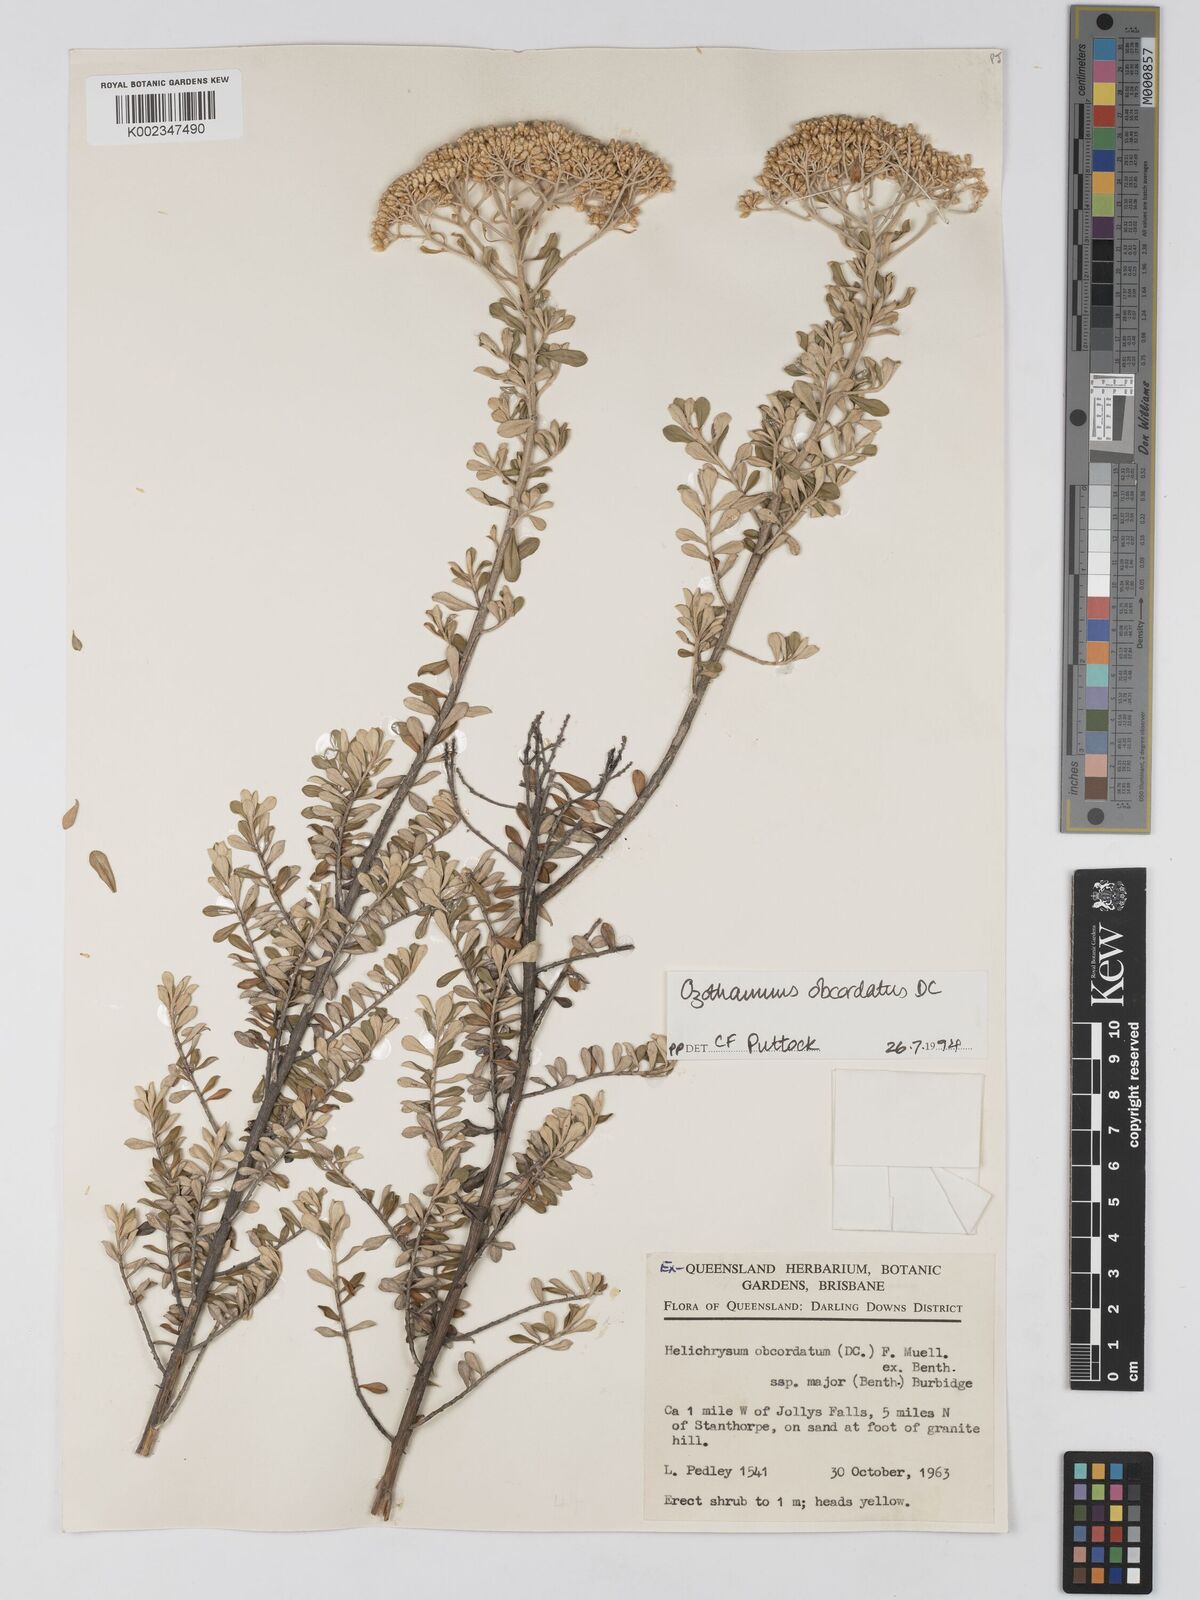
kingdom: Plantae
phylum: Tracheophyta
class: Magnoliopsida
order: Asterales
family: Asteraceae
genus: Ozothamnus
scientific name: Ozothamnus obcordatus
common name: Grey everlasting
